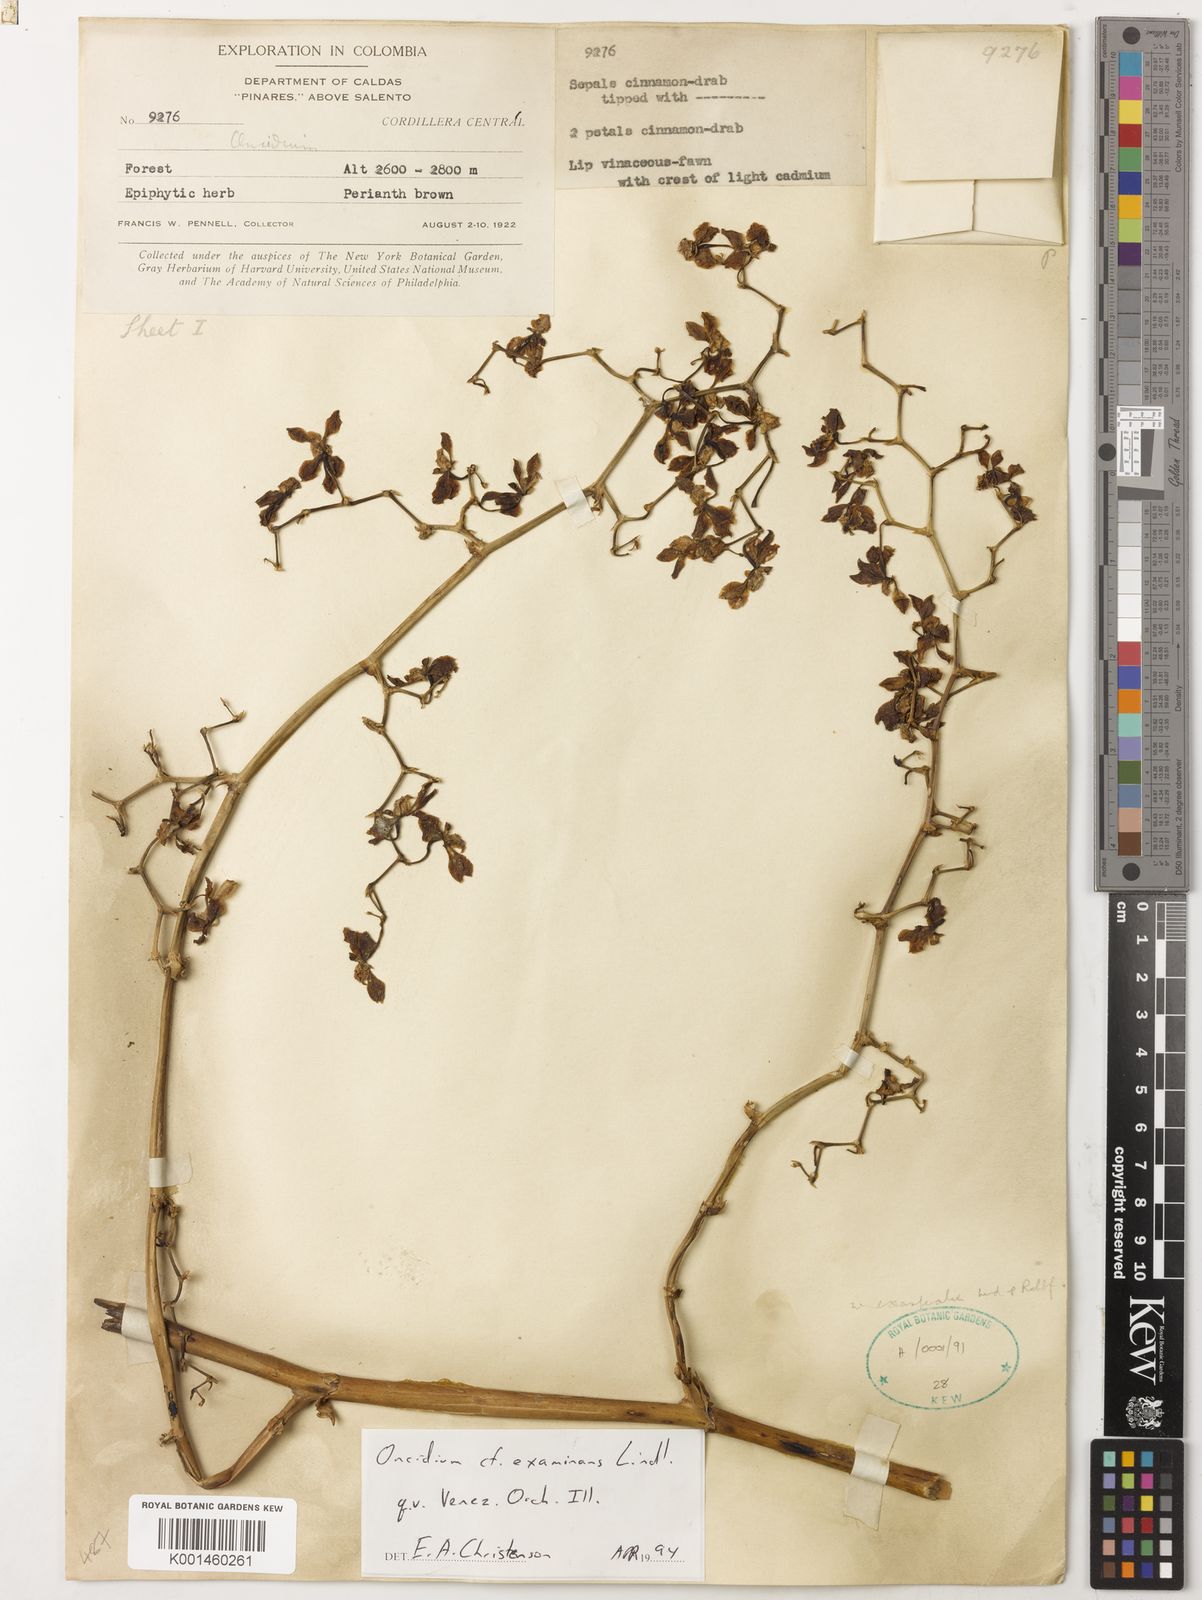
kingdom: Plantae
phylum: Tracheophyta
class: Liliopsida
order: Asparagales
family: Orchidaceae
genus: Cyrtochilum
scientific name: Cyrtochilum examinans
